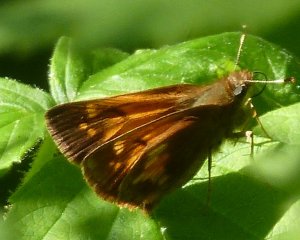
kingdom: Animalia
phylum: Arthropoda
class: Insecta
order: Lepidoptera
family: Hesperiidae
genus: Lon
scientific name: Lon hobomok
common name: Hobomok Skipper
